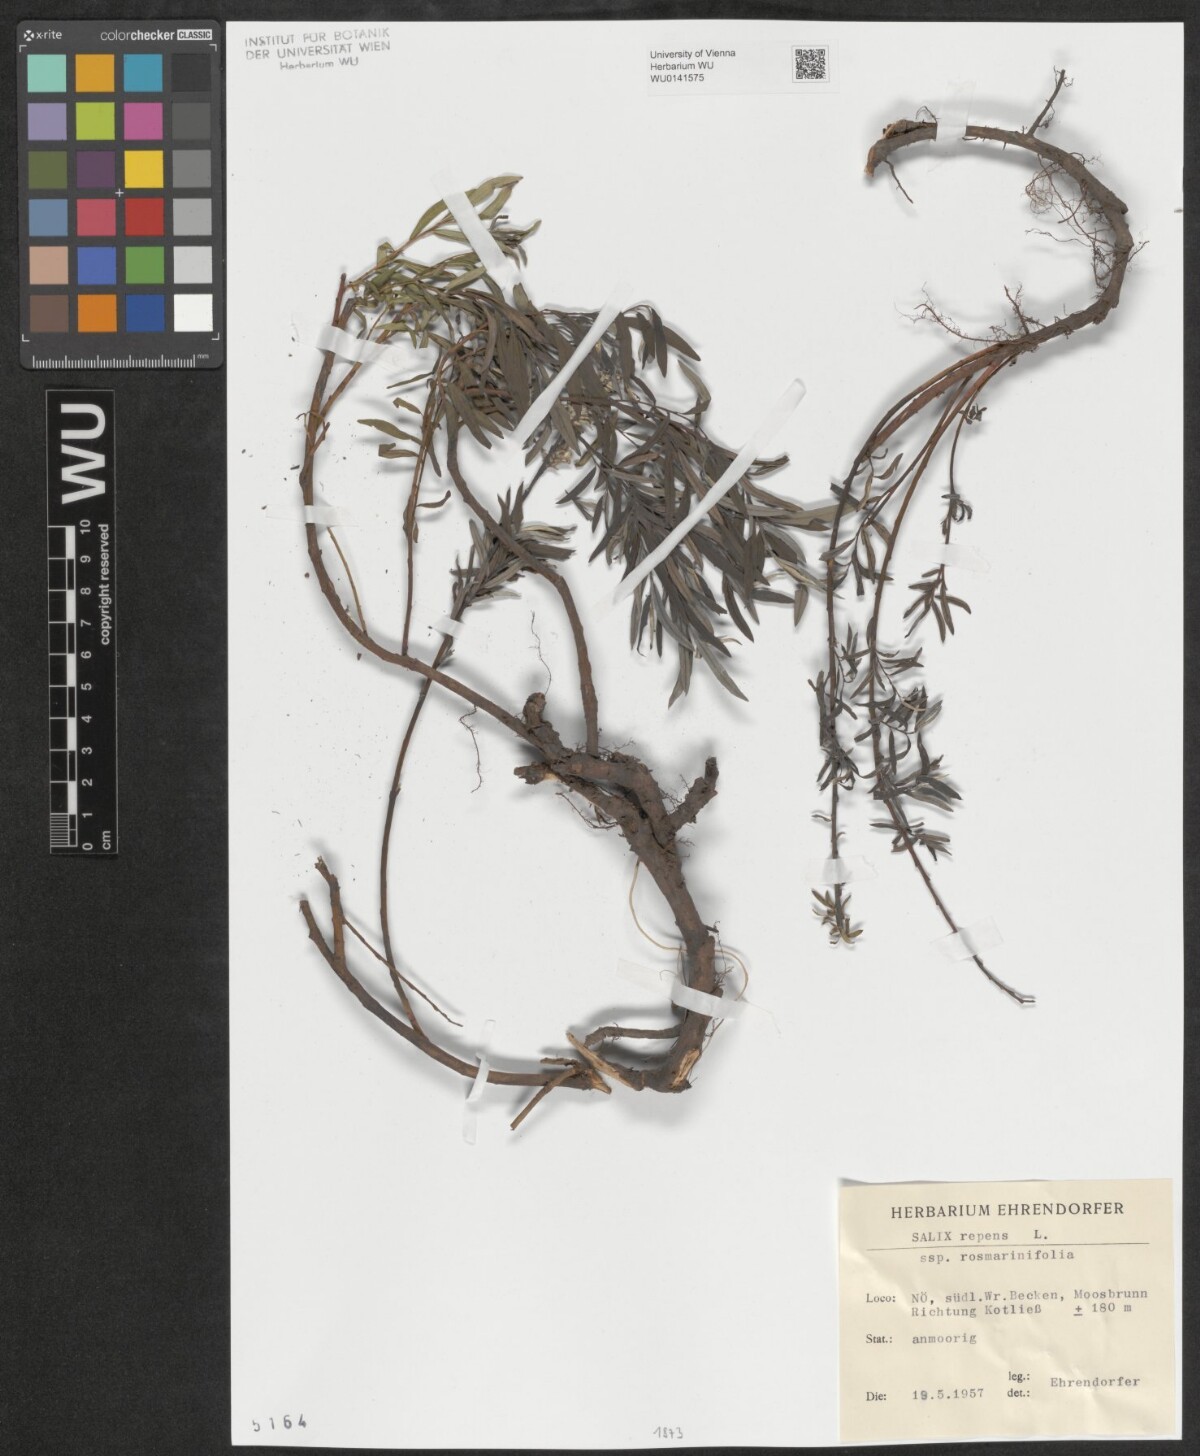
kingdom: Plantae
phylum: Tracheophyta
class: Magnoliopsida
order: Malpighiales
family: Salicaceae
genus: Salix
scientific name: Salix repens
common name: Creeping willow
